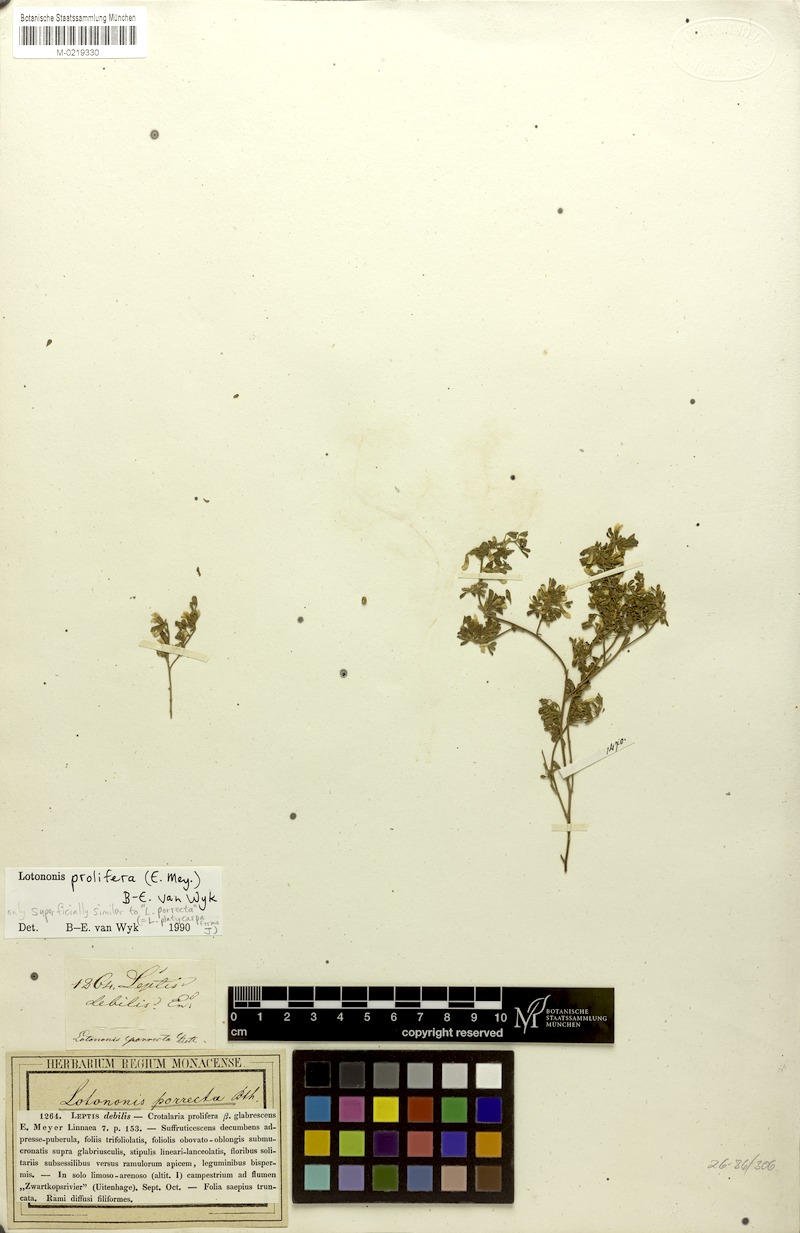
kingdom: Plantae
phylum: Tracheophyta
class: Magnoliopsida
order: Fabales
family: Fabaceae
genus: Lotononis
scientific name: Lotononis prolifera
